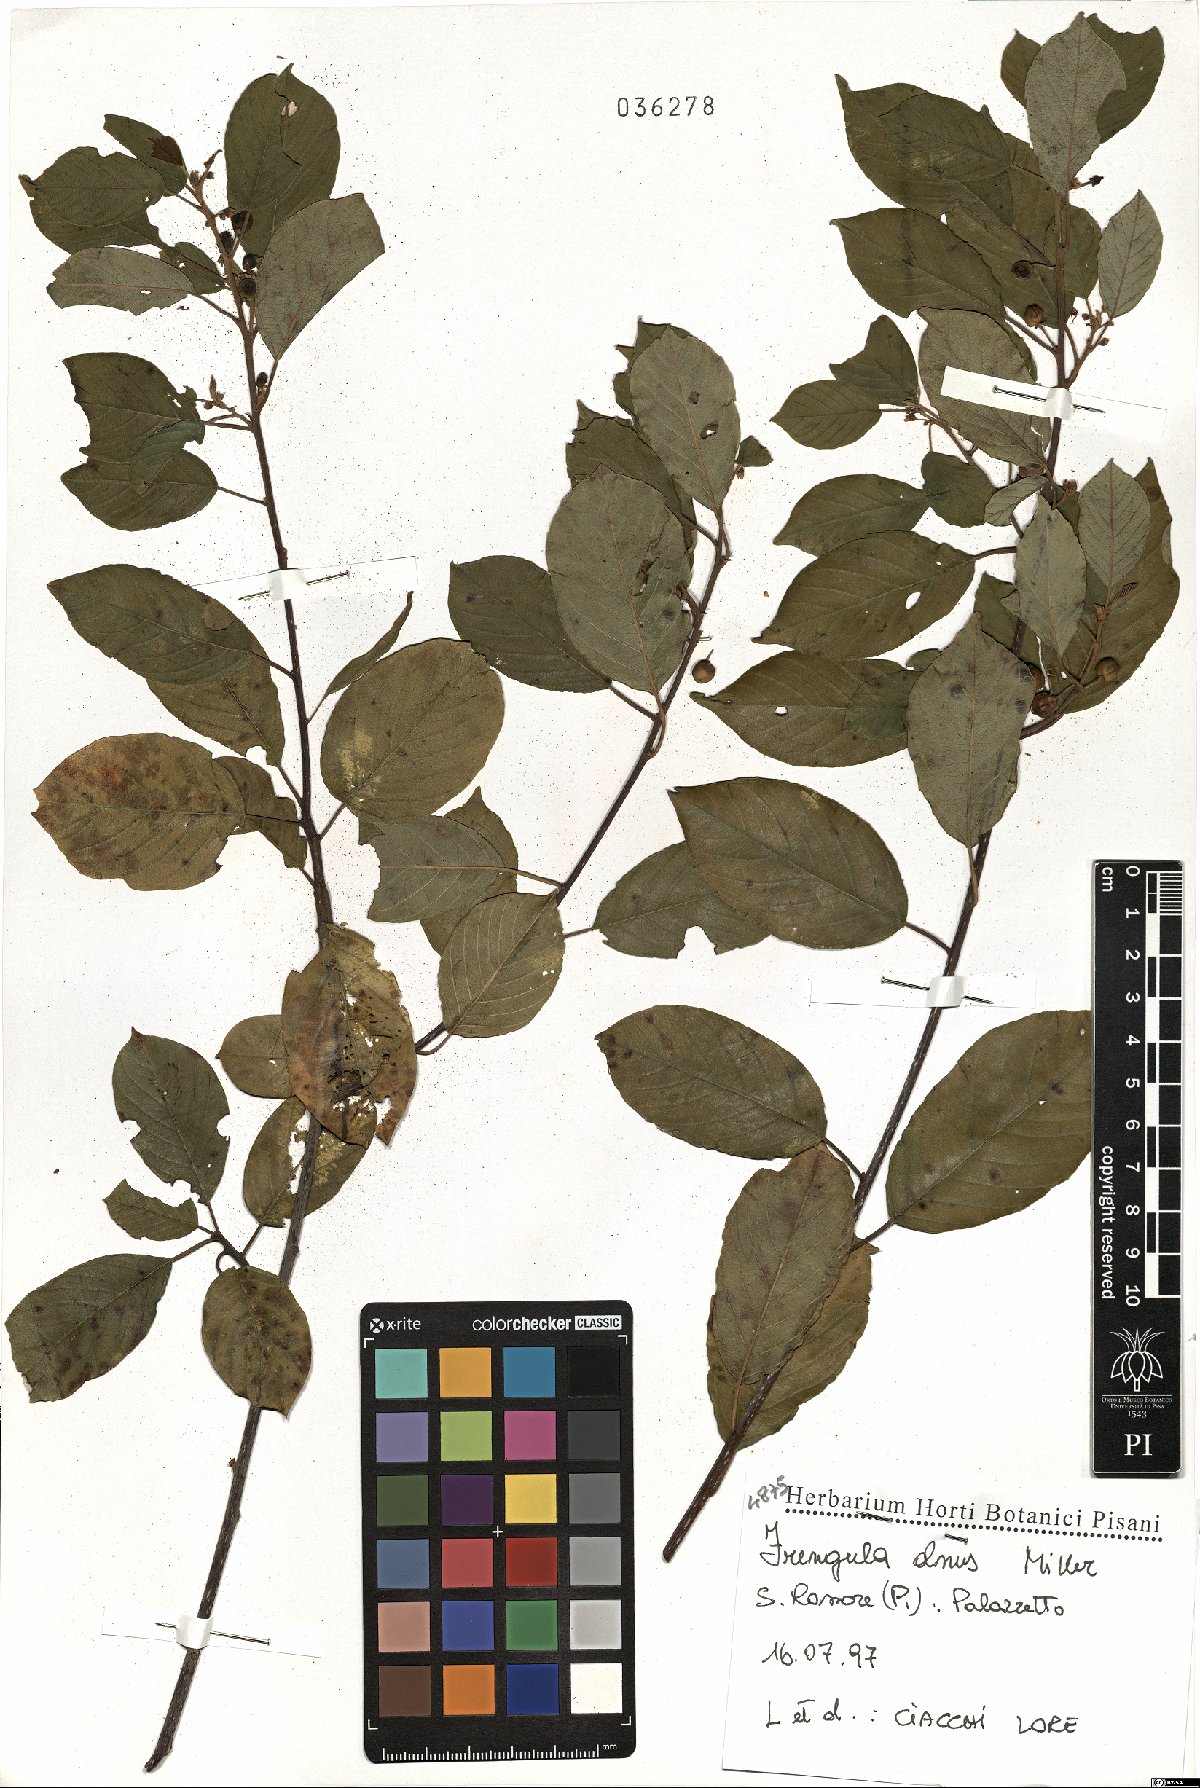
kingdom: Plantae
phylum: Tracheophyta
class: Magnoliopsida
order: Rosales
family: Rhamnaceae
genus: Frangula
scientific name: Frangula alnus
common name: Alder buckthorn
